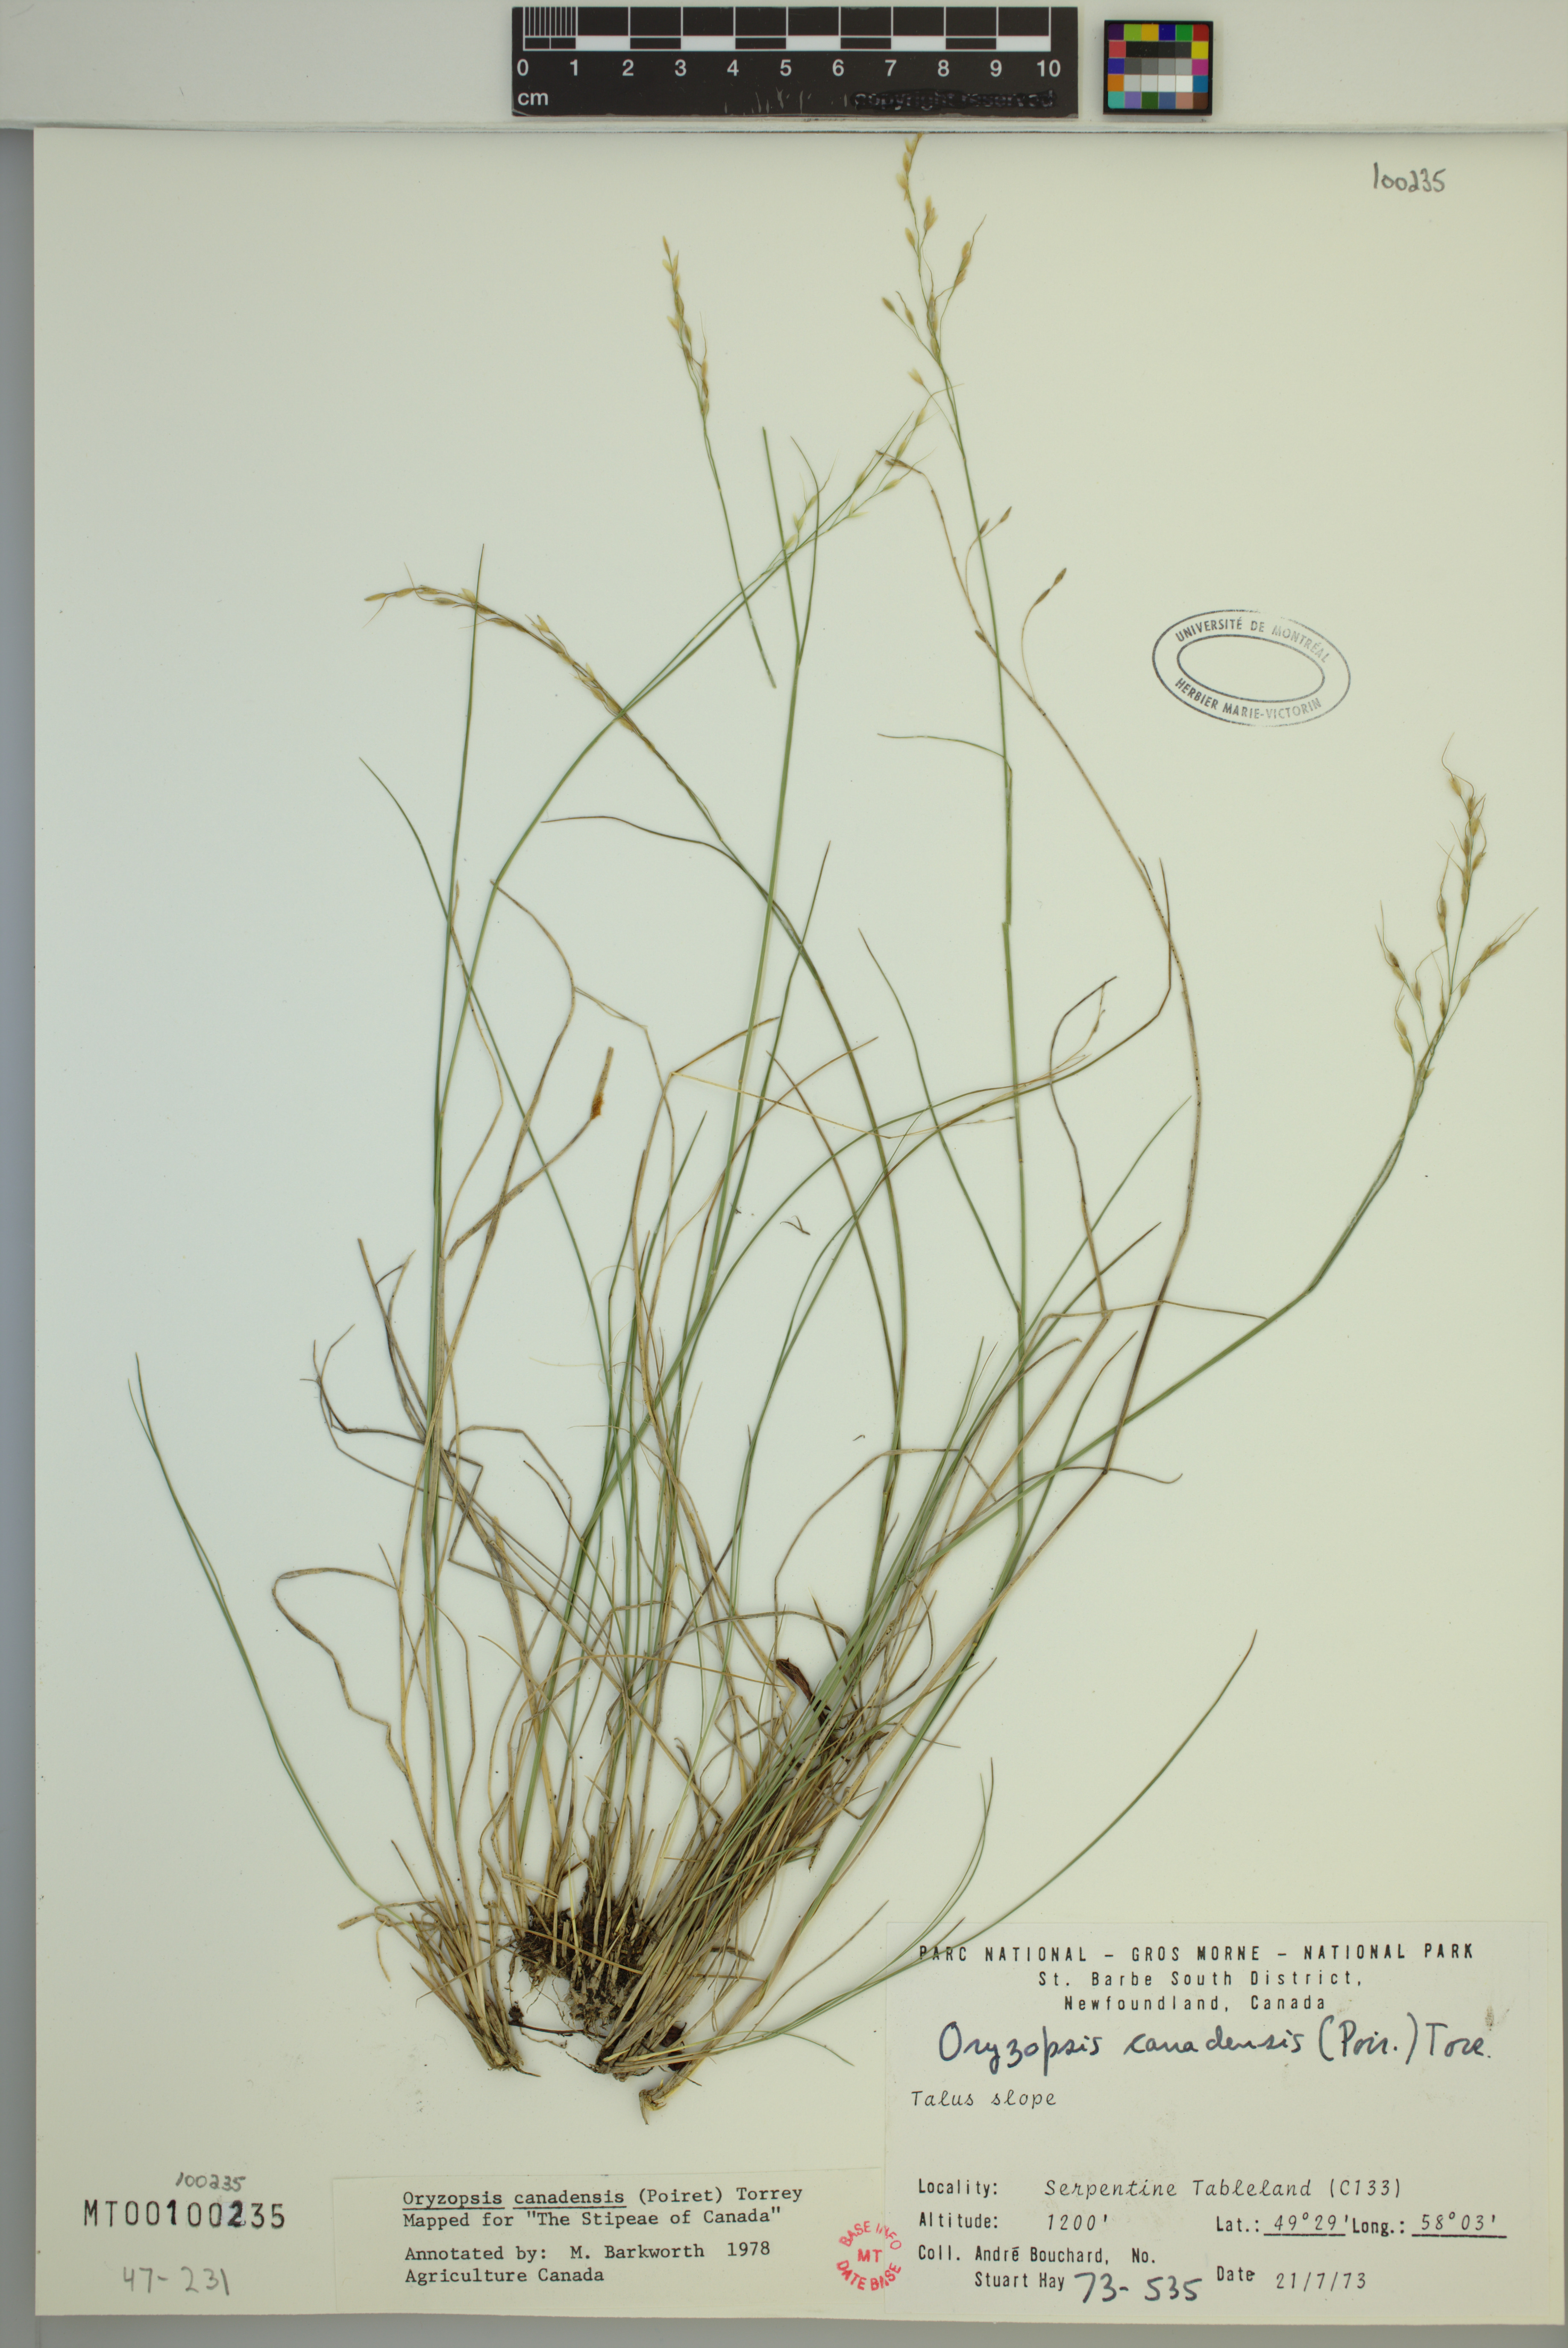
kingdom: Plantae
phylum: Tracheophyta
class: Liliopsida
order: Poales
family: Poaceae
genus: Piptatheropsis
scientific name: Piptatheropsis canadensis
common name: Canada mountain ricegrass
